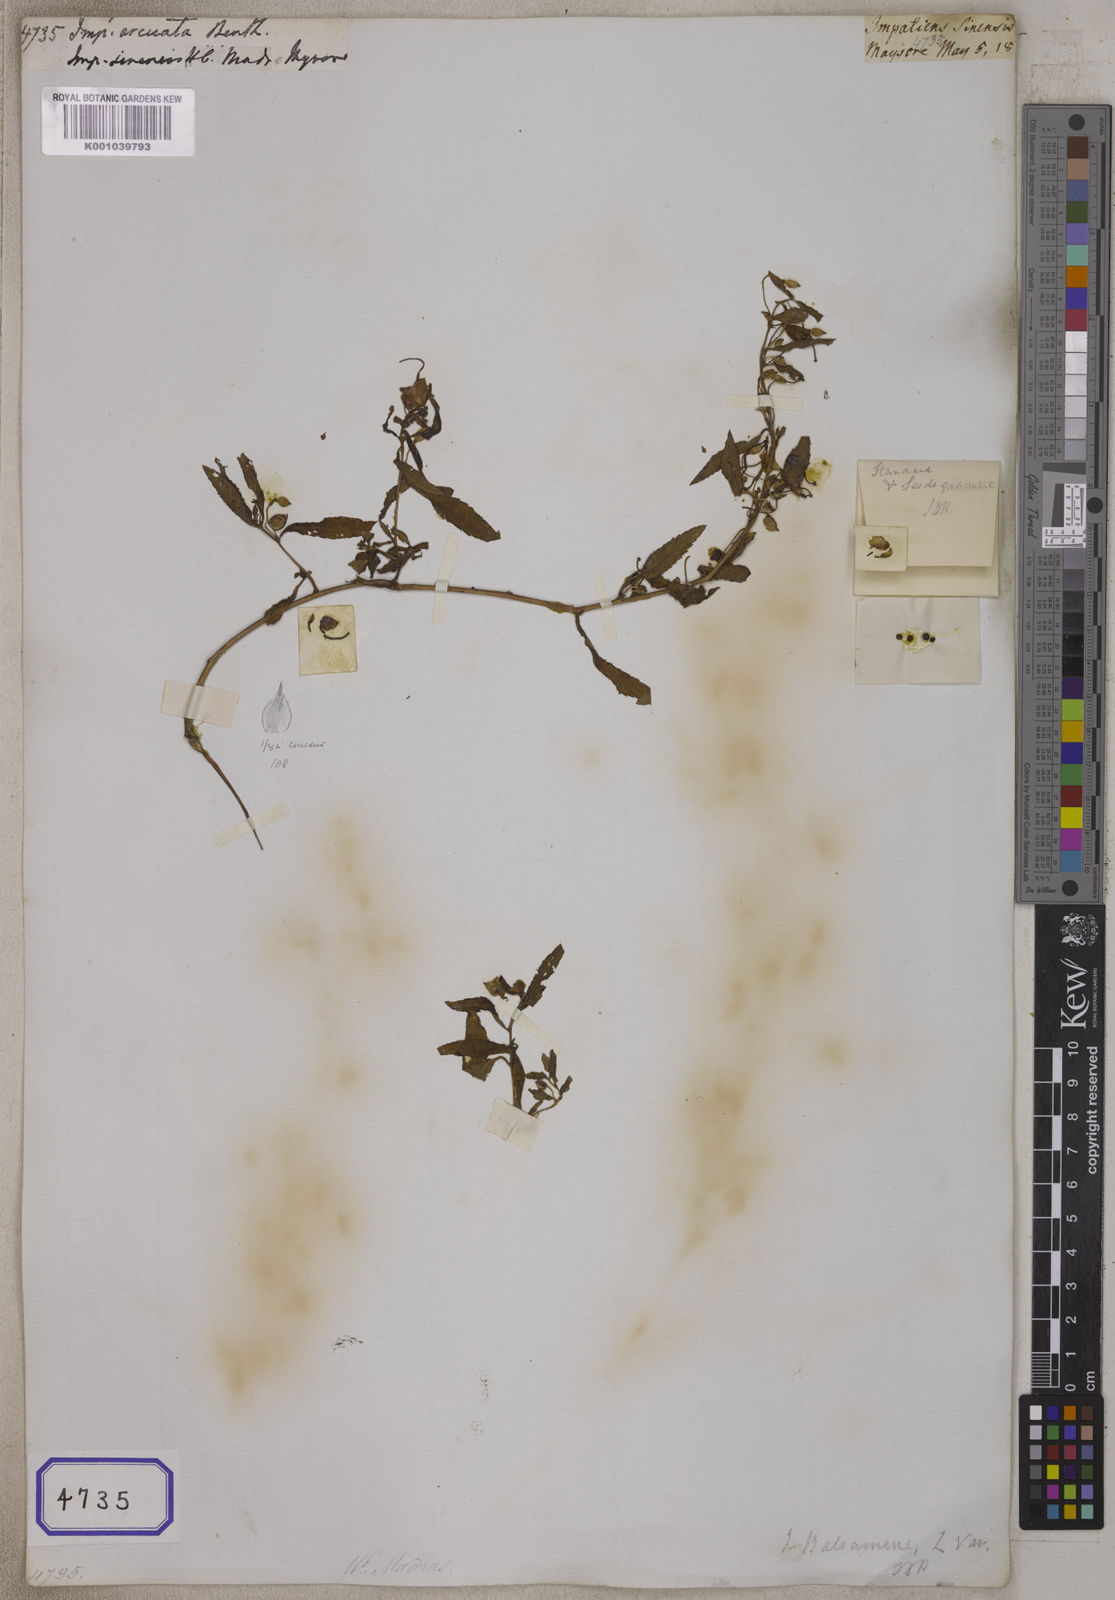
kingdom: Plantae
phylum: Tracheophyta
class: Magnoliopsida
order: Ericales
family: Balsaminaceae
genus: Impatiens
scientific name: Impatiens
